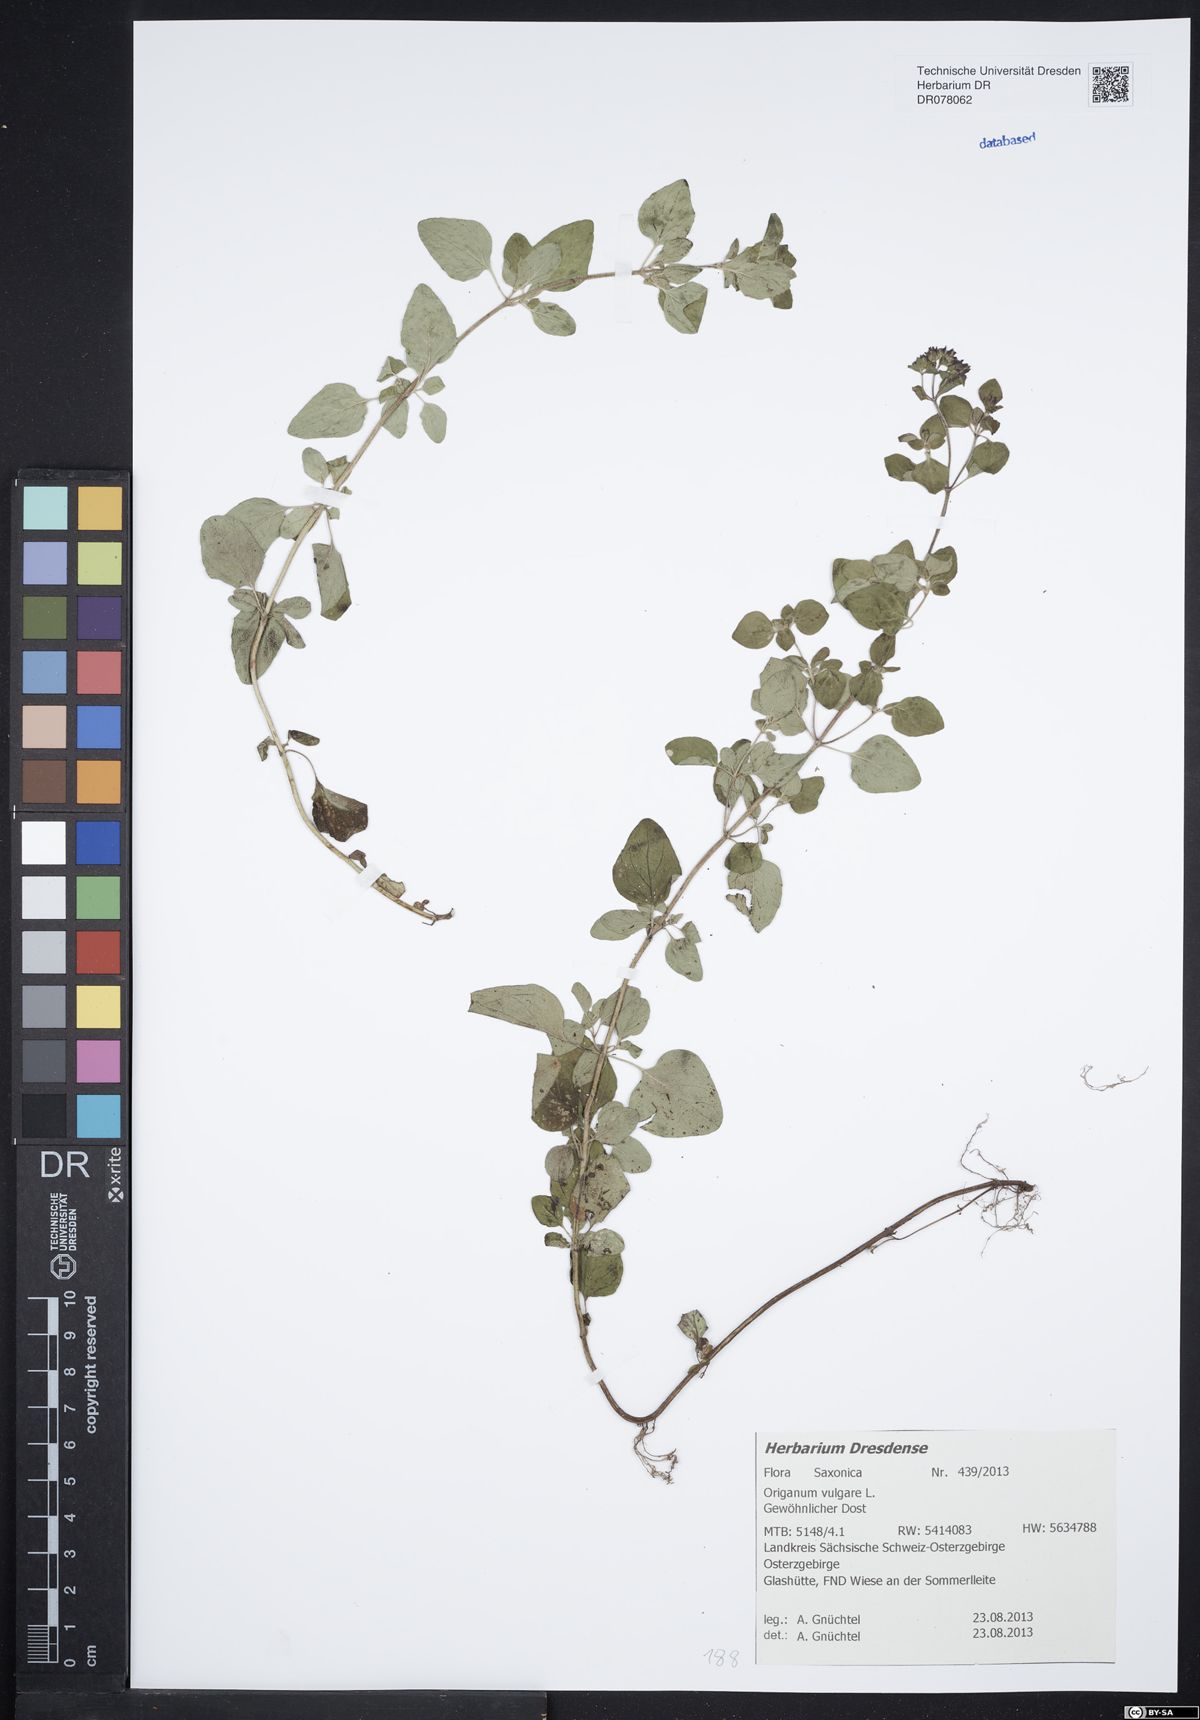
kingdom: Plantae
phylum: Tracheophyta
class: Magnoliopsida
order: Lamiales
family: Lamiaceae
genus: Origanum
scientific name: Origanum vulgare
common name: Wild marjoram
